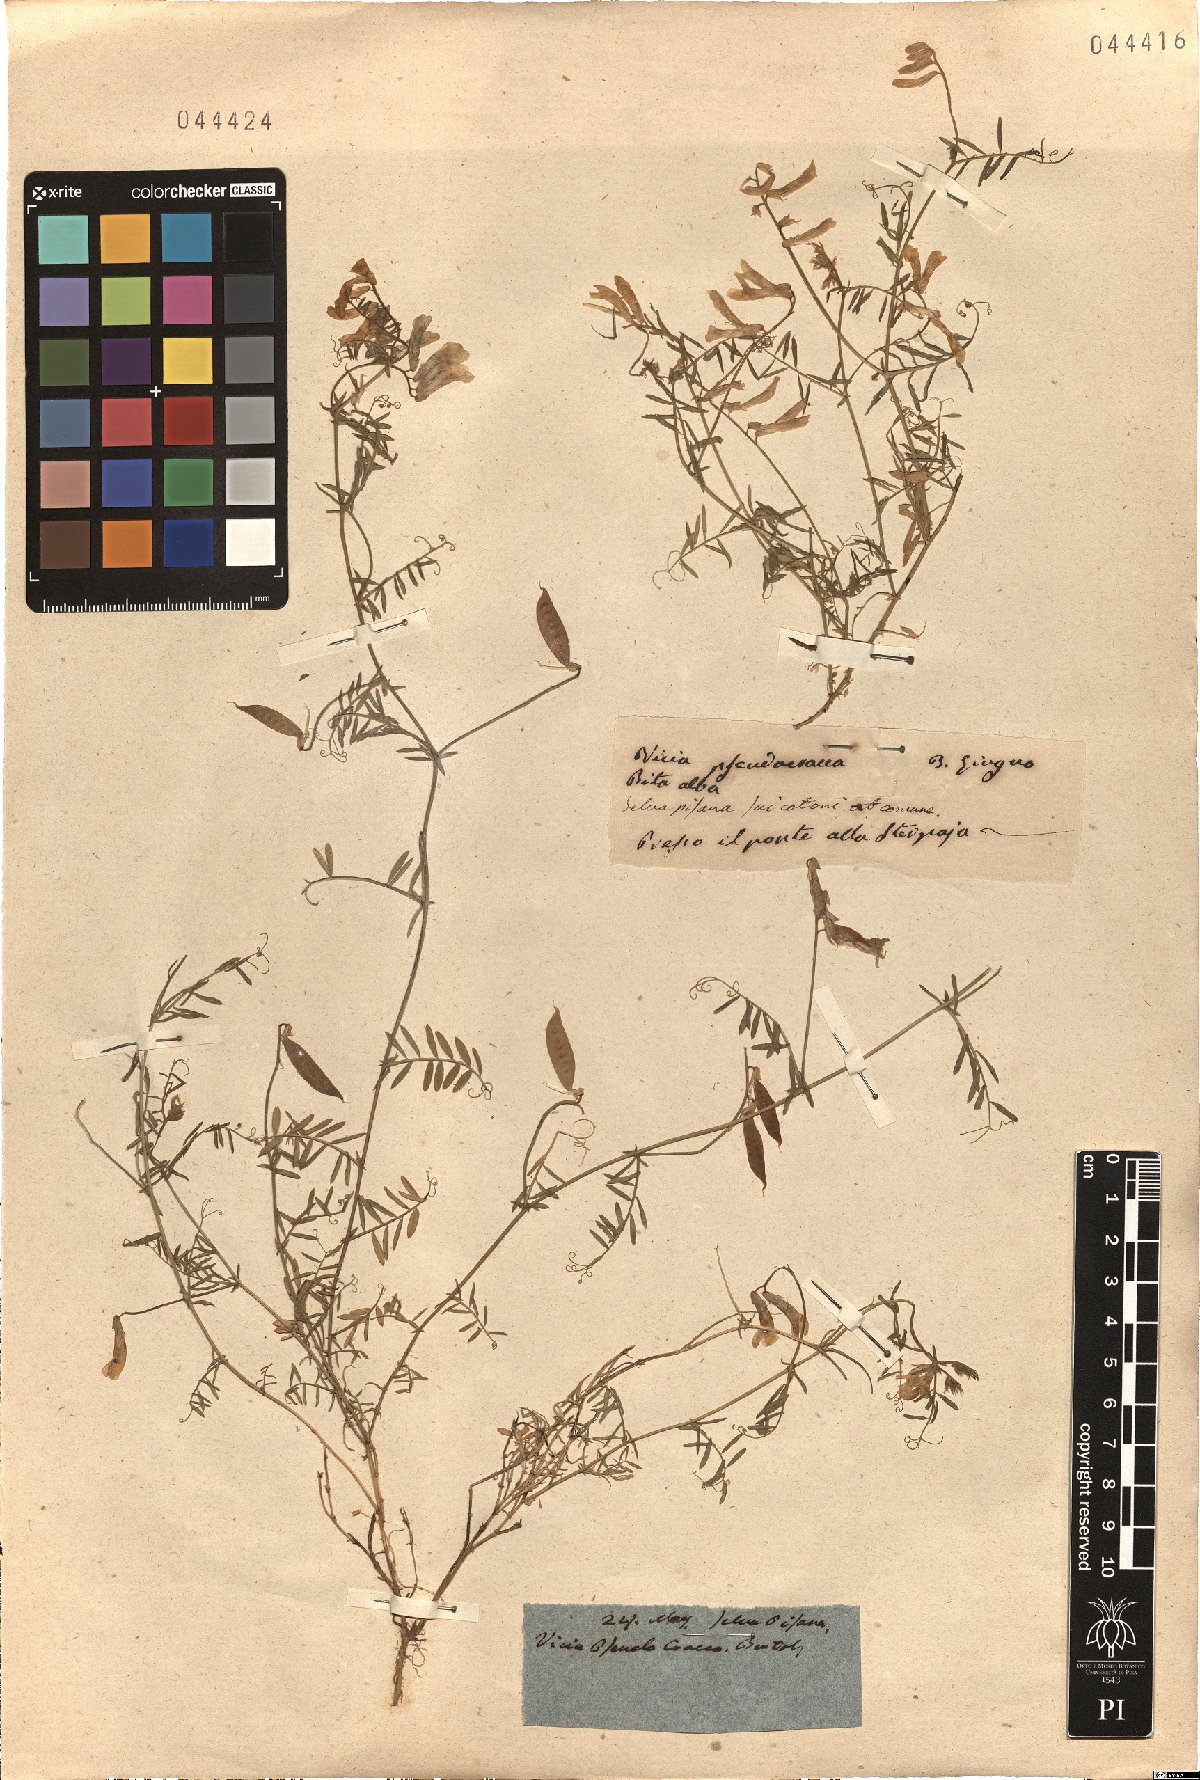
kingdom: Plantae
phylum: Tracheophyta
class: Magnoliopsida
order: Fabales
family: Fabaceae
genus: Vicia
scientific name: Vicia villosa
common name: Fodder vetch
